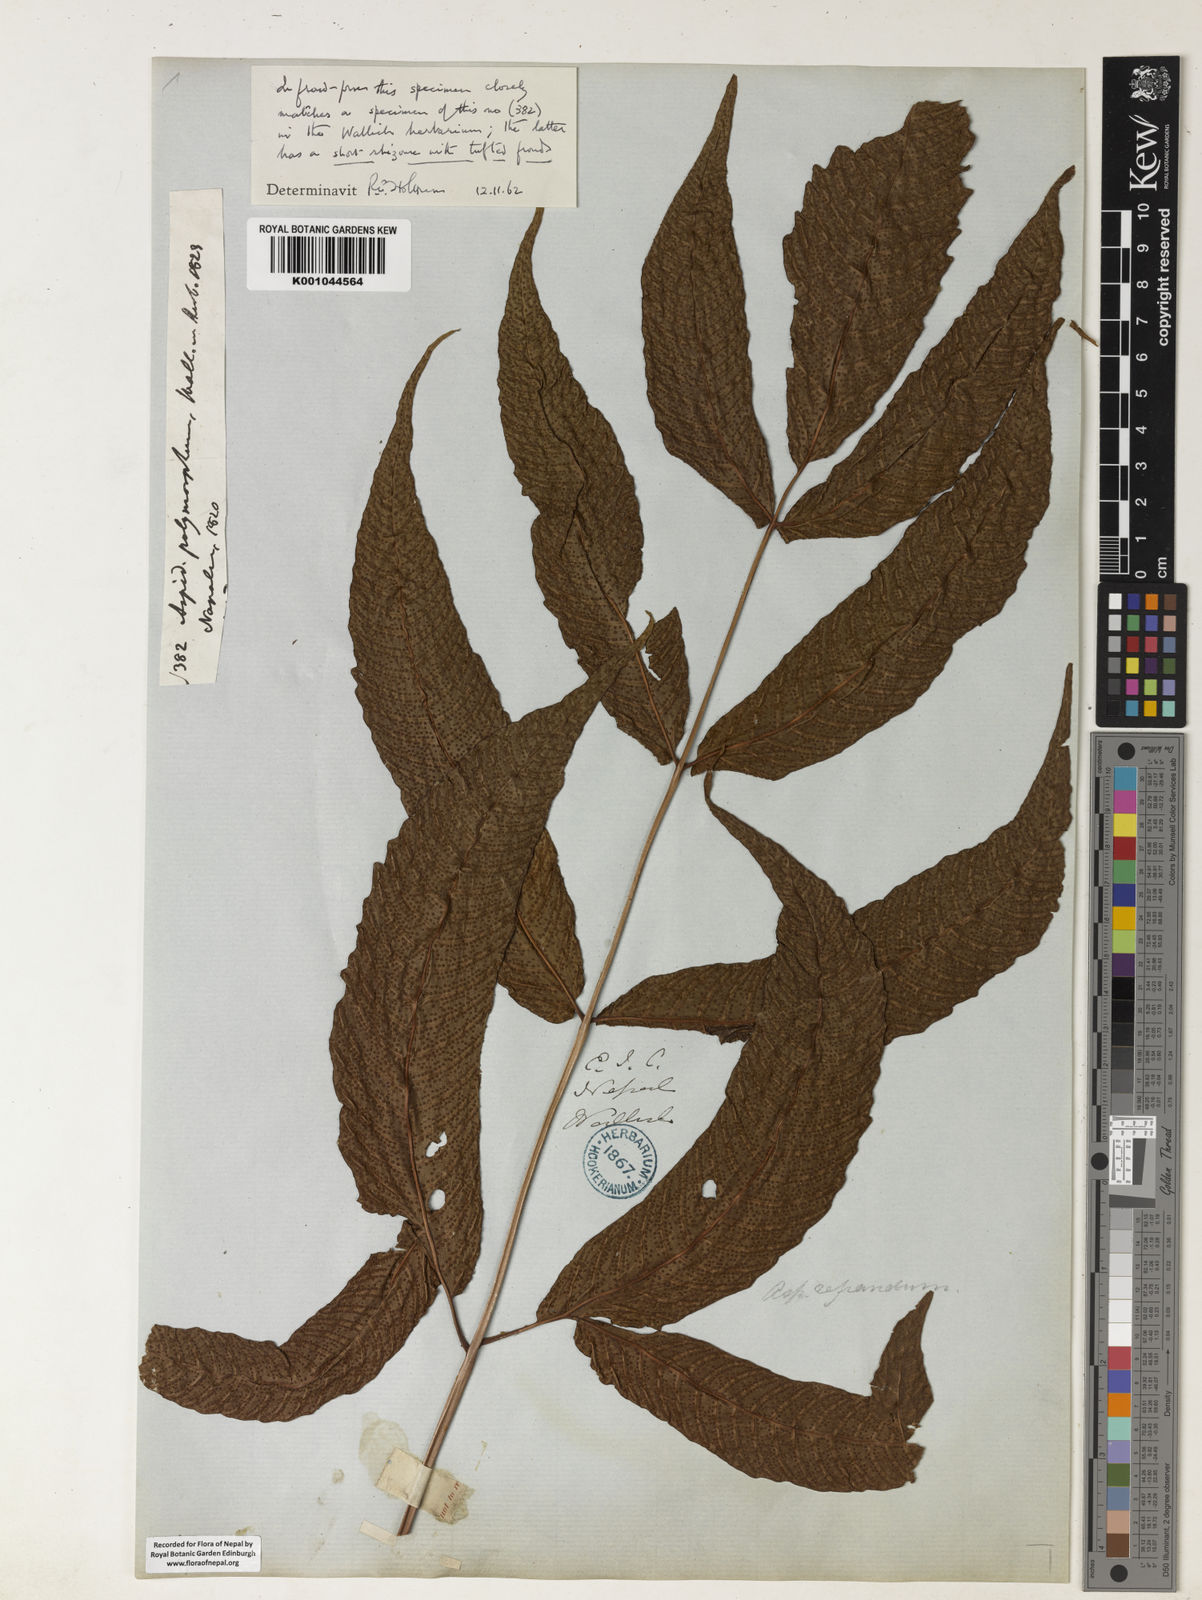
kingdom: Plantae
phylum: Tracheophyta
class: Polypodiopsida
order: Polypodiales
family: Tectariaceae
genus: Tectaria
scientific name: Tectaria wightii
